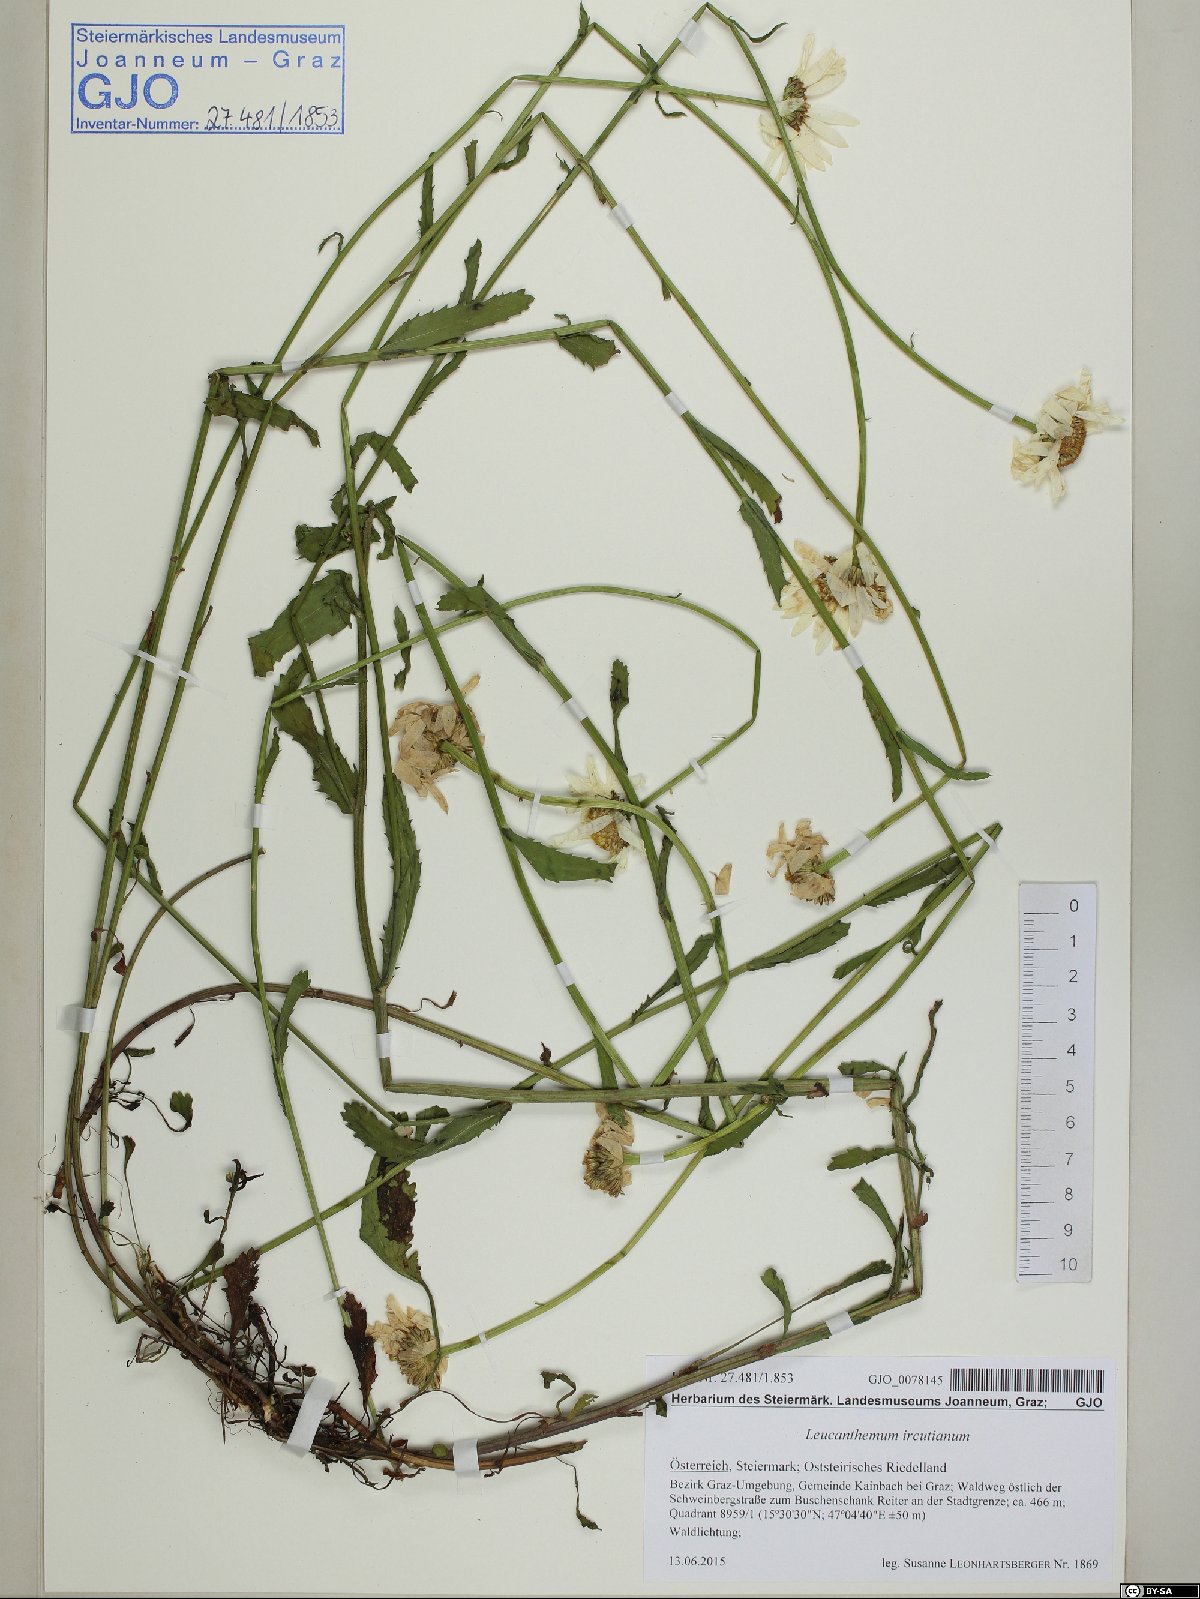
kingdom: Plantae
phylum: Tracheophyta
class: Magnoliopsida
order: Asterales
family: Asteraceae
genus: Leucanthemum
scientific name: Leucanthemum ircutianum
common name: Daisy
